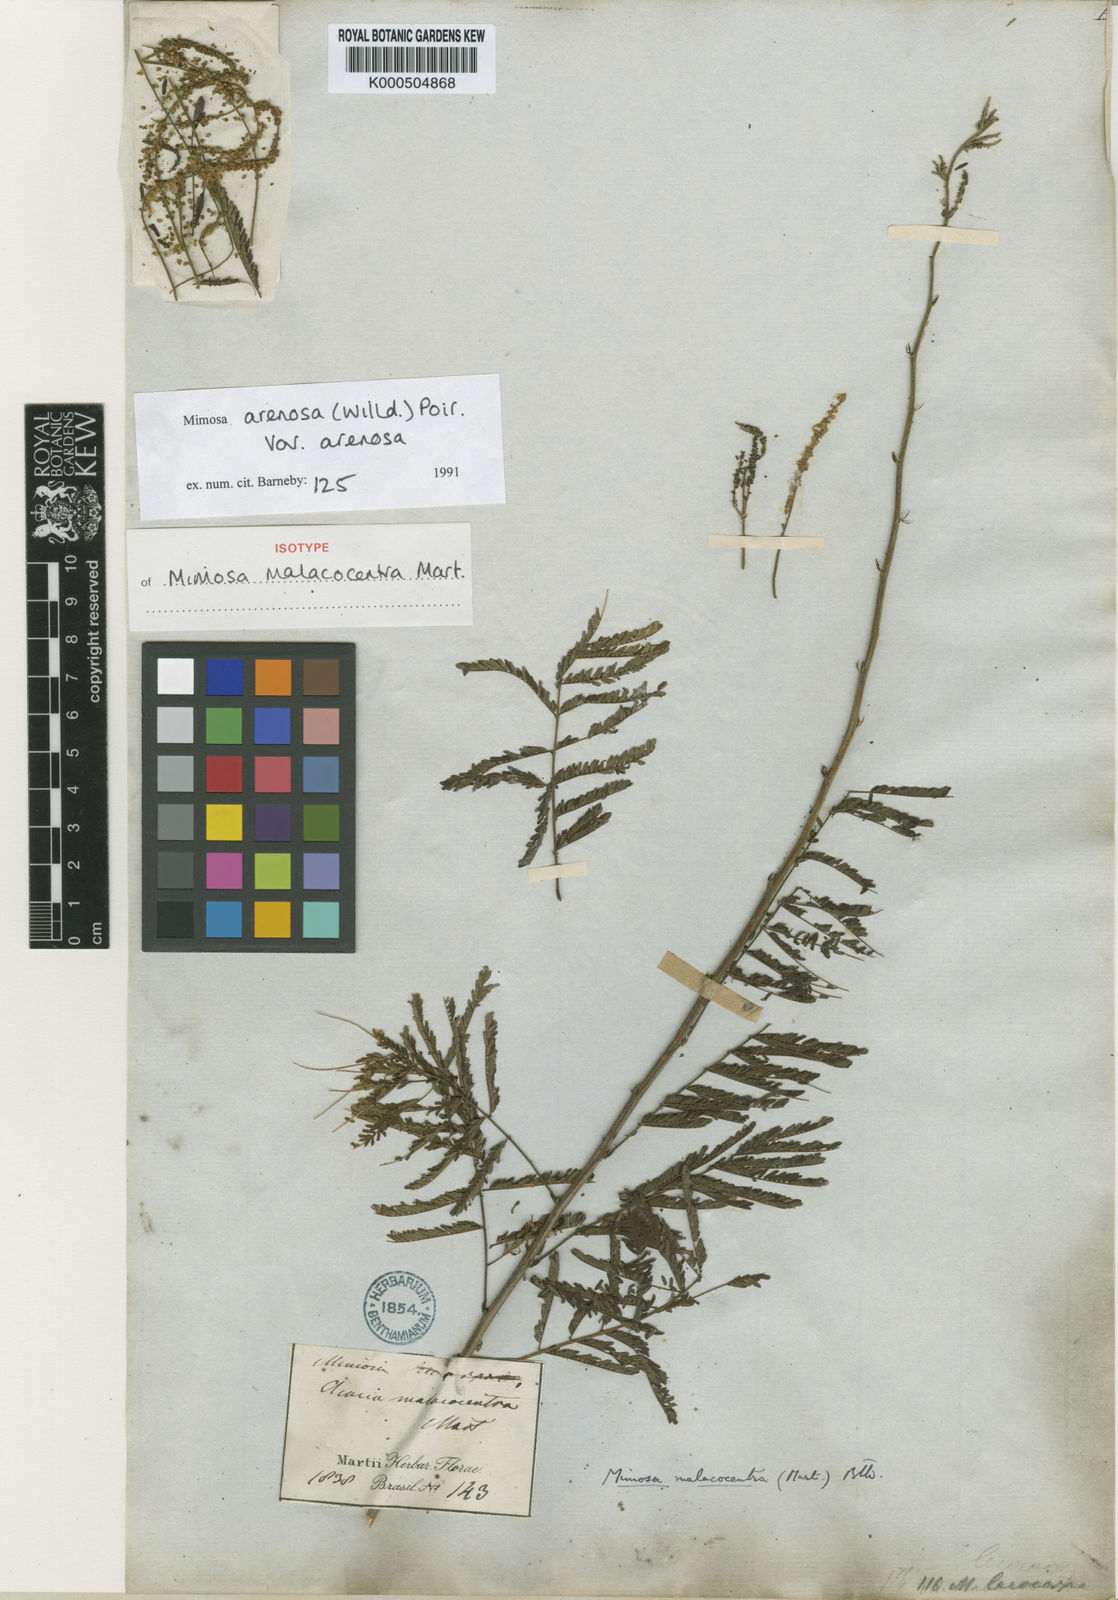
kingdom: Plantae
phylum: Tracheophyta
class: Magnoliopsida
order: Fabales
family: Fabaceae
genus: Mimosa
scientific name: Mimosa arenosa
